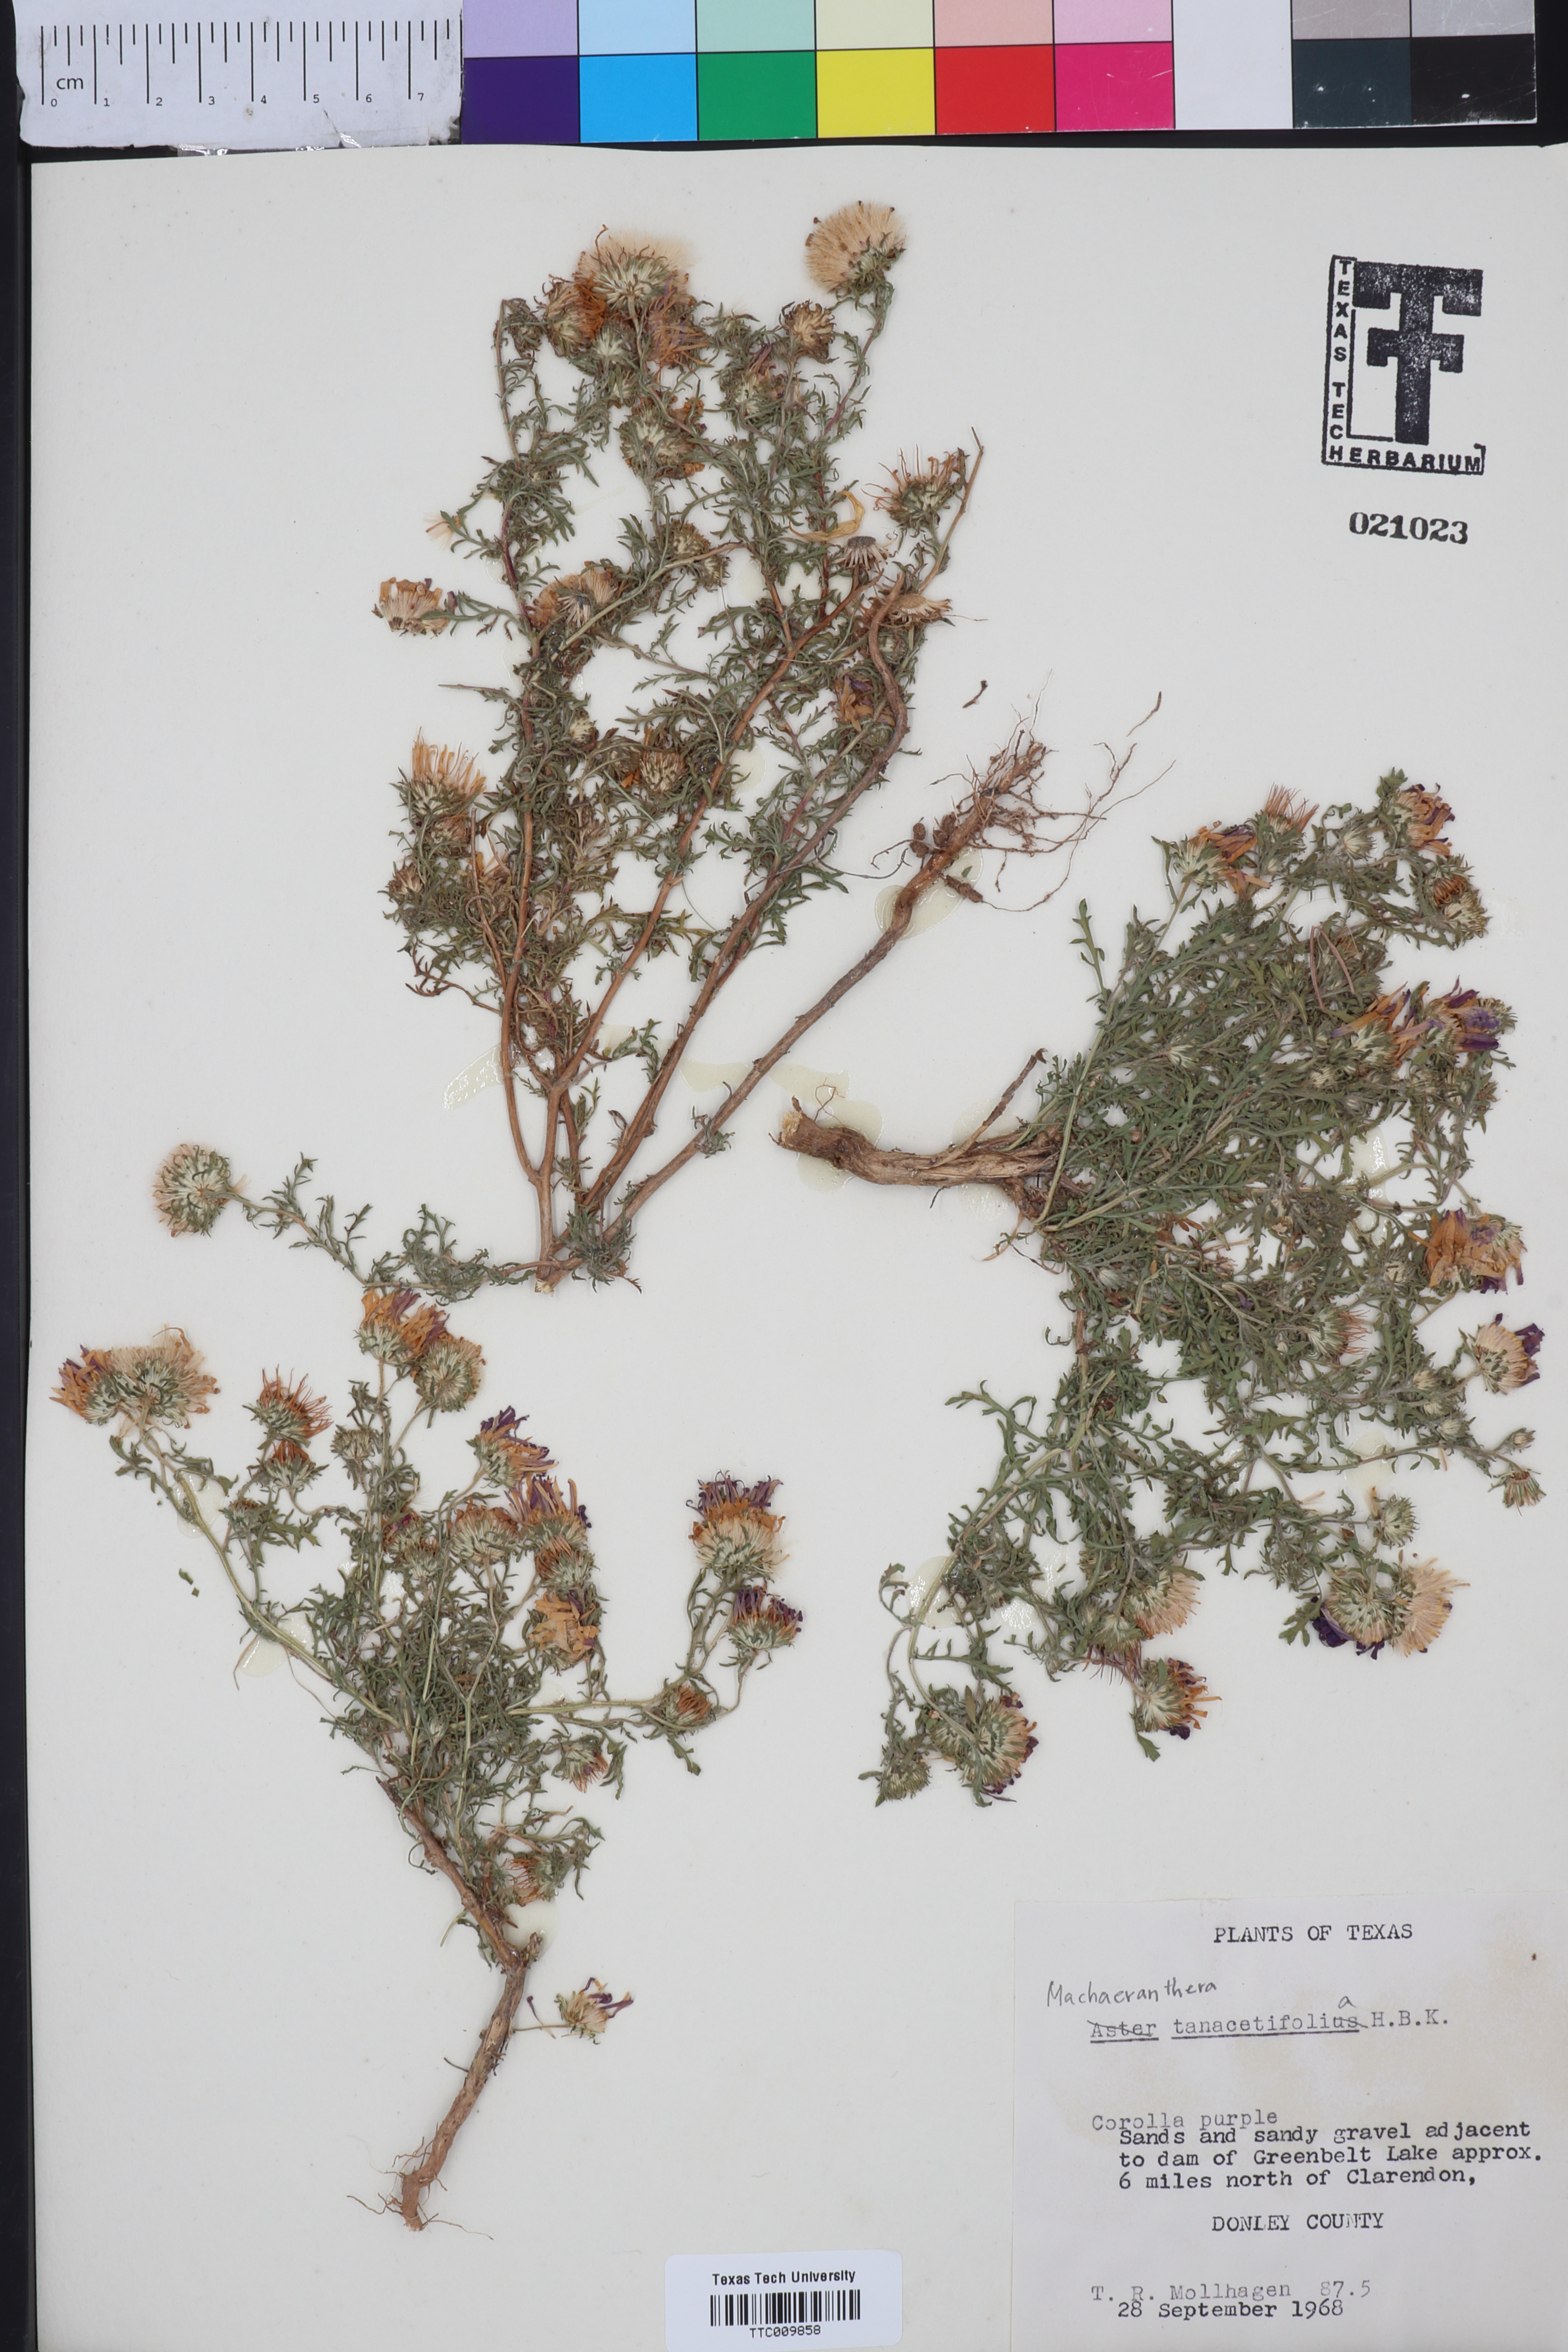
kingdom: Plantae
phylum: Tracheophyta
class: Magnoliopsida
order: Asterales
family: Asteraceae
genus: Machaeranthera
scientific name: Machaeranthera tanacetifolia
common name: Tansy-aster
